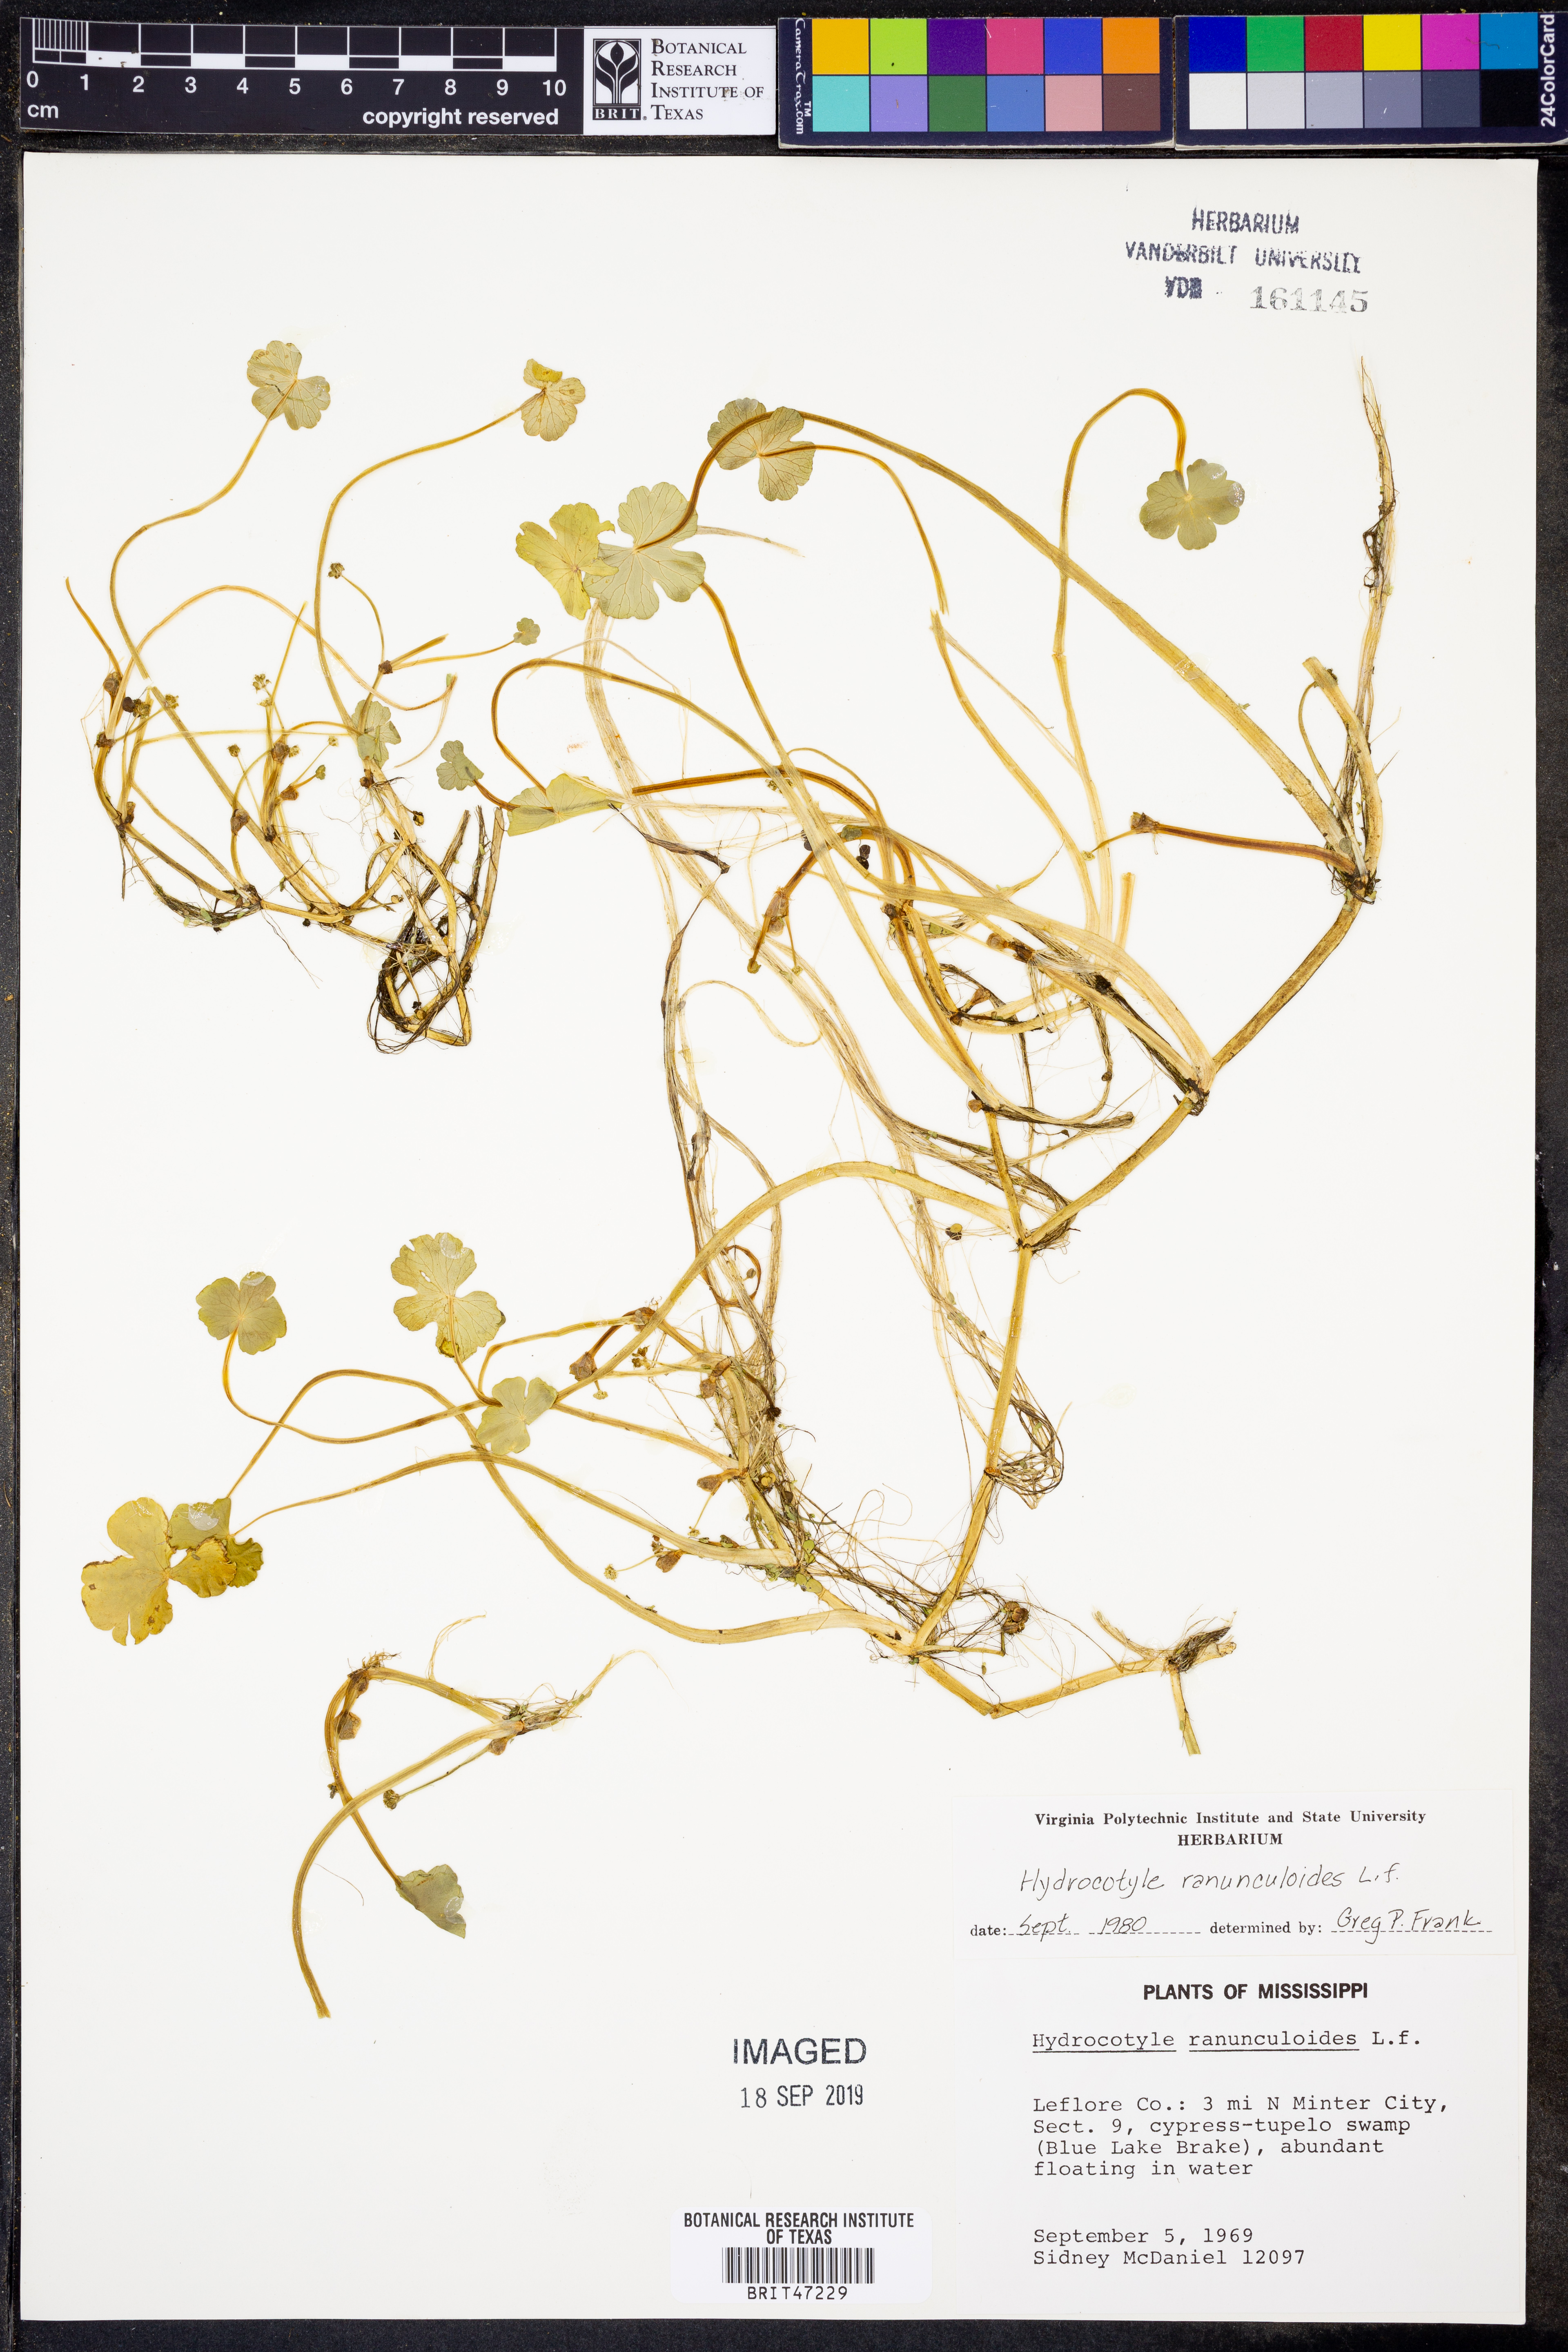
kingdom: Plantae
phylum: Tracheophyta
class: Polypodiopsida
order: Schizaeales
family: Anemiaceae
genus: Anemia
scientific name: Anemia hispida
